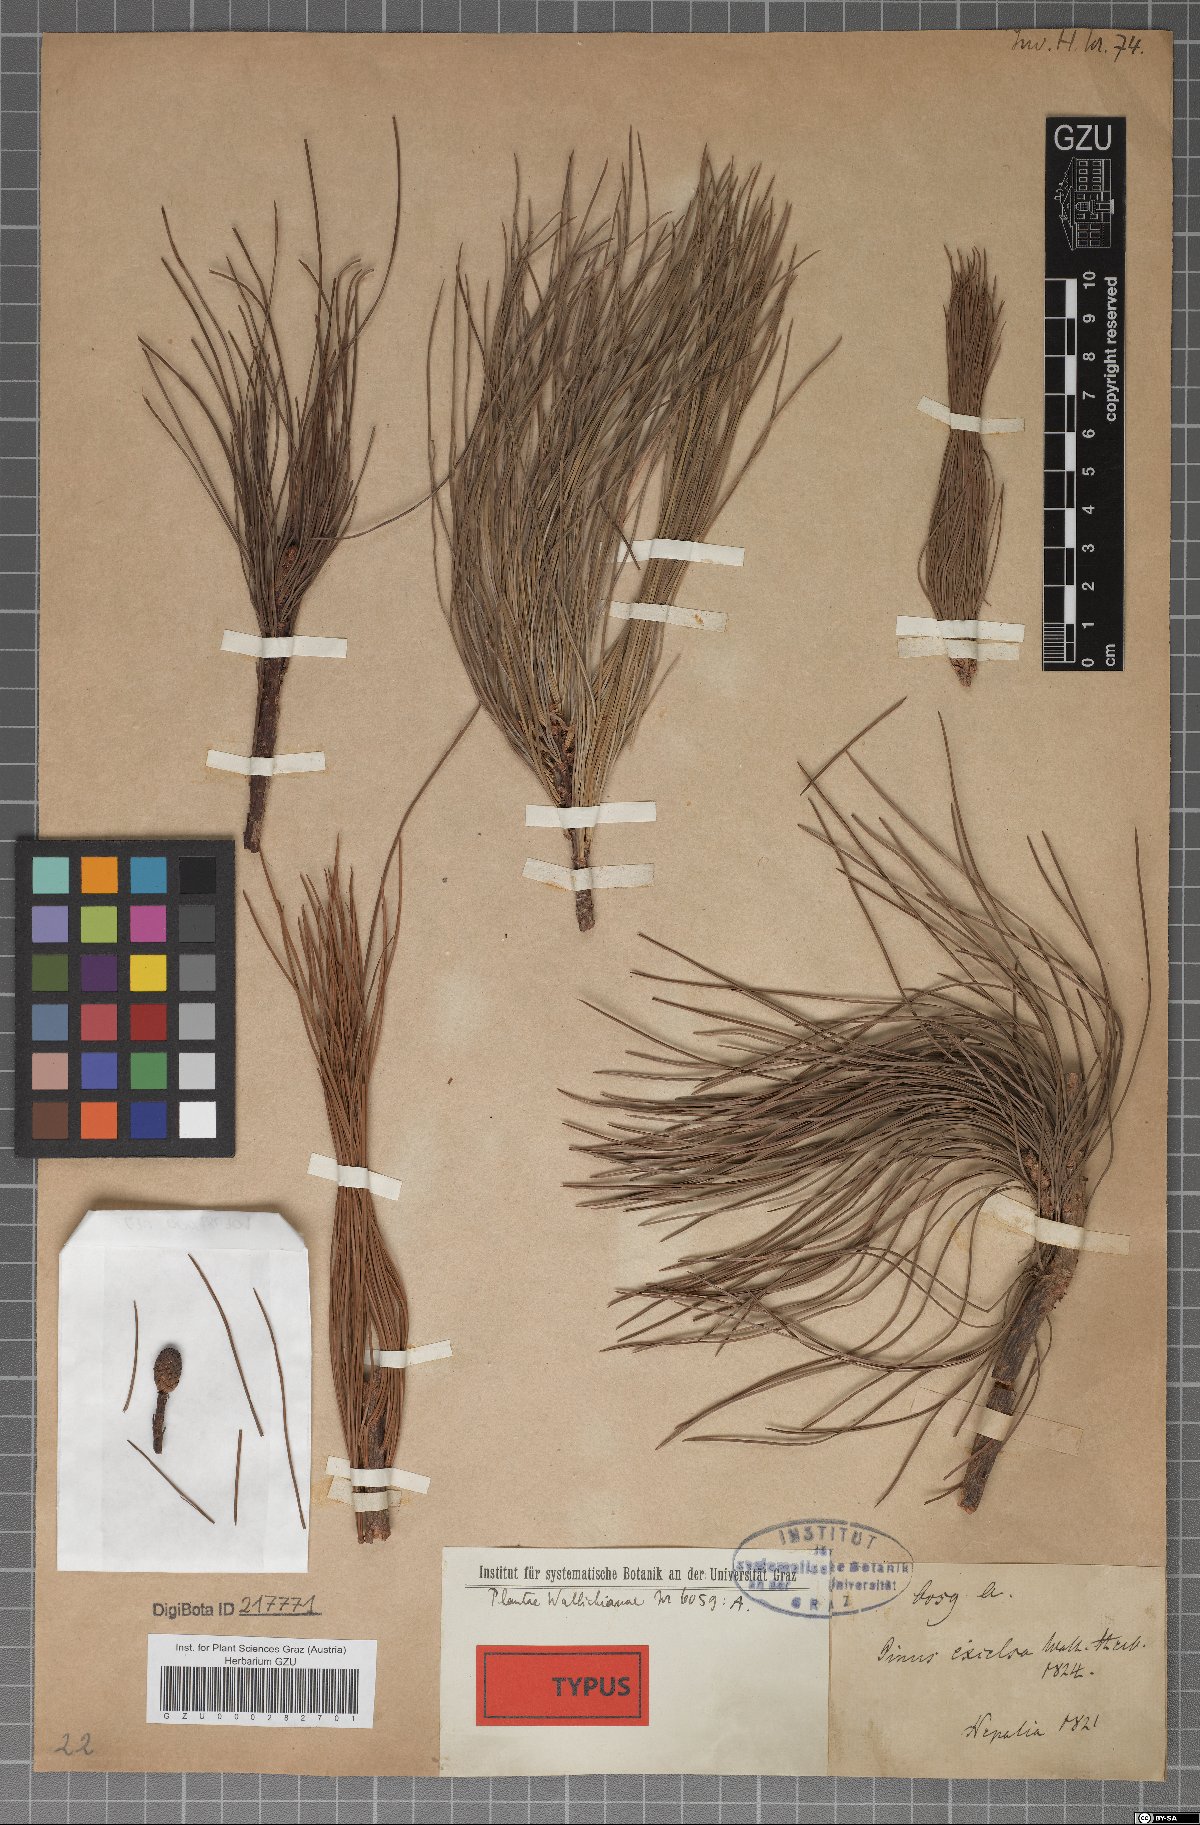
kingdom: Plantae
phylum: Tracheophyta
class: Pinopsida
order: Pinales
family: Pinaceae
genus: Pinus
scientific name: Pinus wallichiana
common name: Bhutan pine
